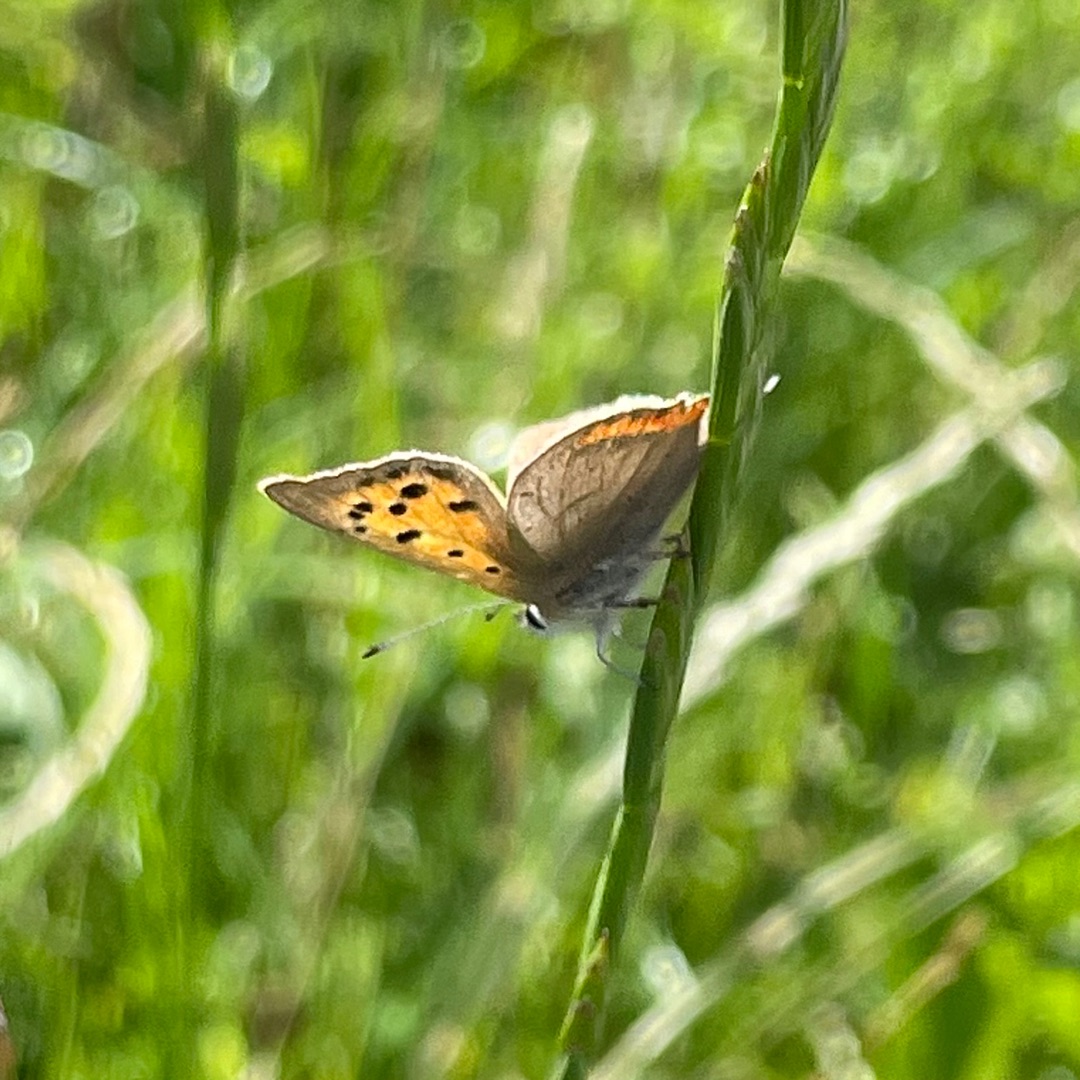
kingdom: Animalia
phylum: Arthropoda
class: Insecta
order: Lepidoptera
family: Lycaenidae
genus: Lycaena
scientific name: Lycaena phlaeas
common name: Lille ildfugl
